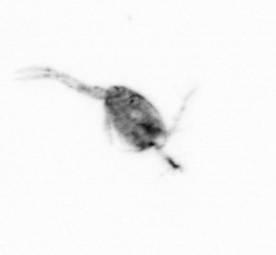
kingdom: Animalia
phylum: Arthropoda
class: Copepoda
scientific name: Copepoda
